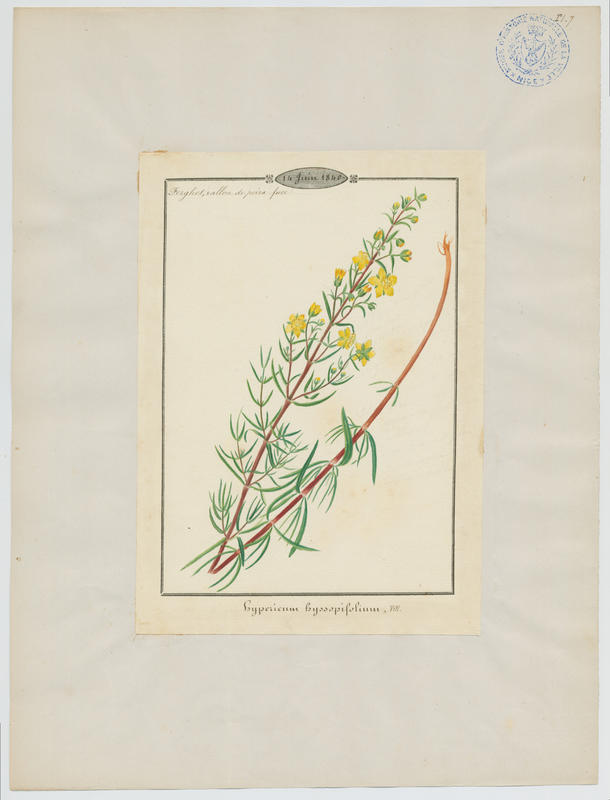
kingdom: Plantae
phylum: Tracheophyta
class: Magnoliopsida
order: Malpighiales
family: Hypericaceae
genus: Hypericum
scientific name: Hypericum hyssopifolium
